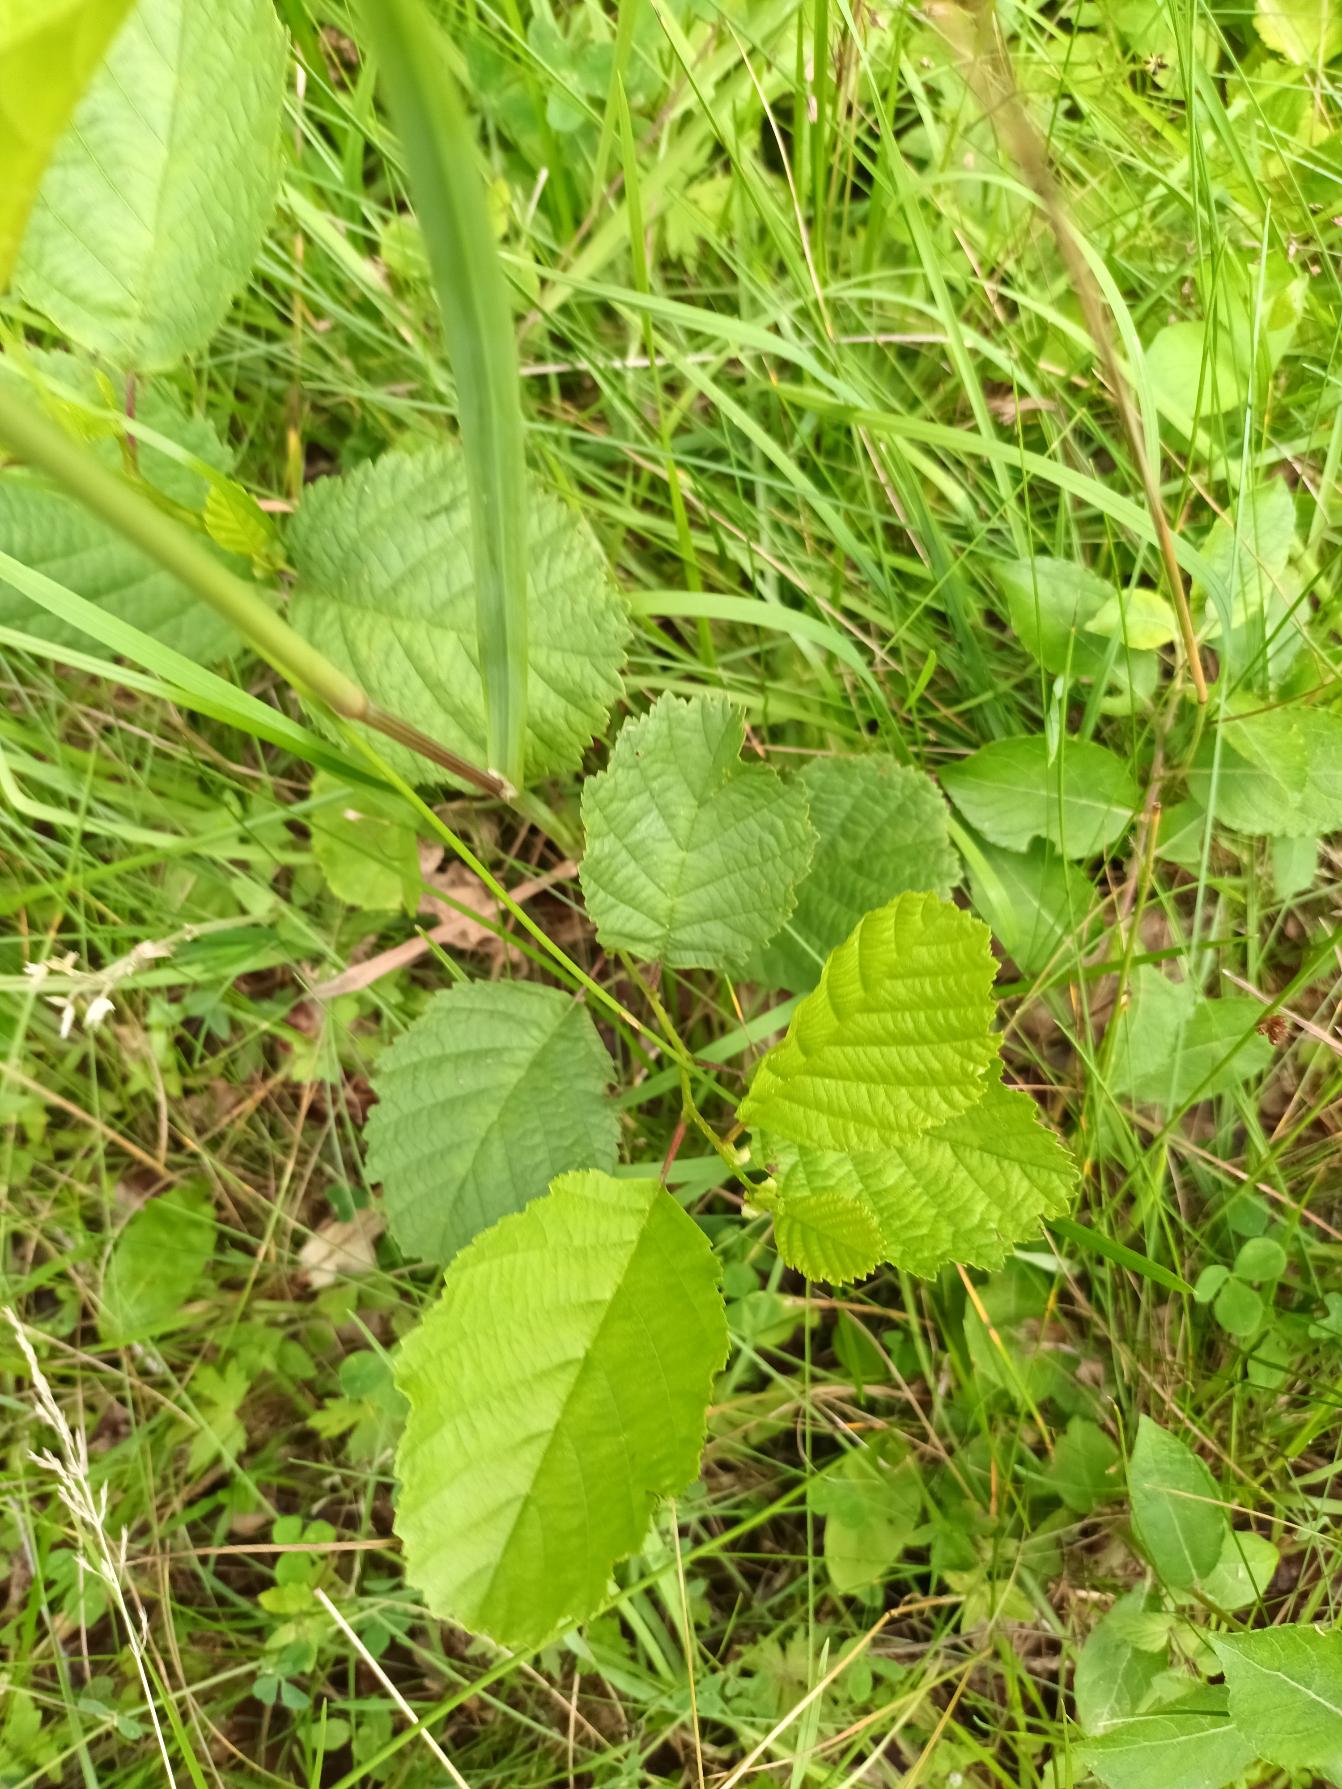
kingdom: Plantae
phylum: Tracheophyta
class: Magnoliopsida
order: Fagales
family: Betulaceae
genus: Alnus
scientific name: Alnus glutinosa
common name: Rød-el
